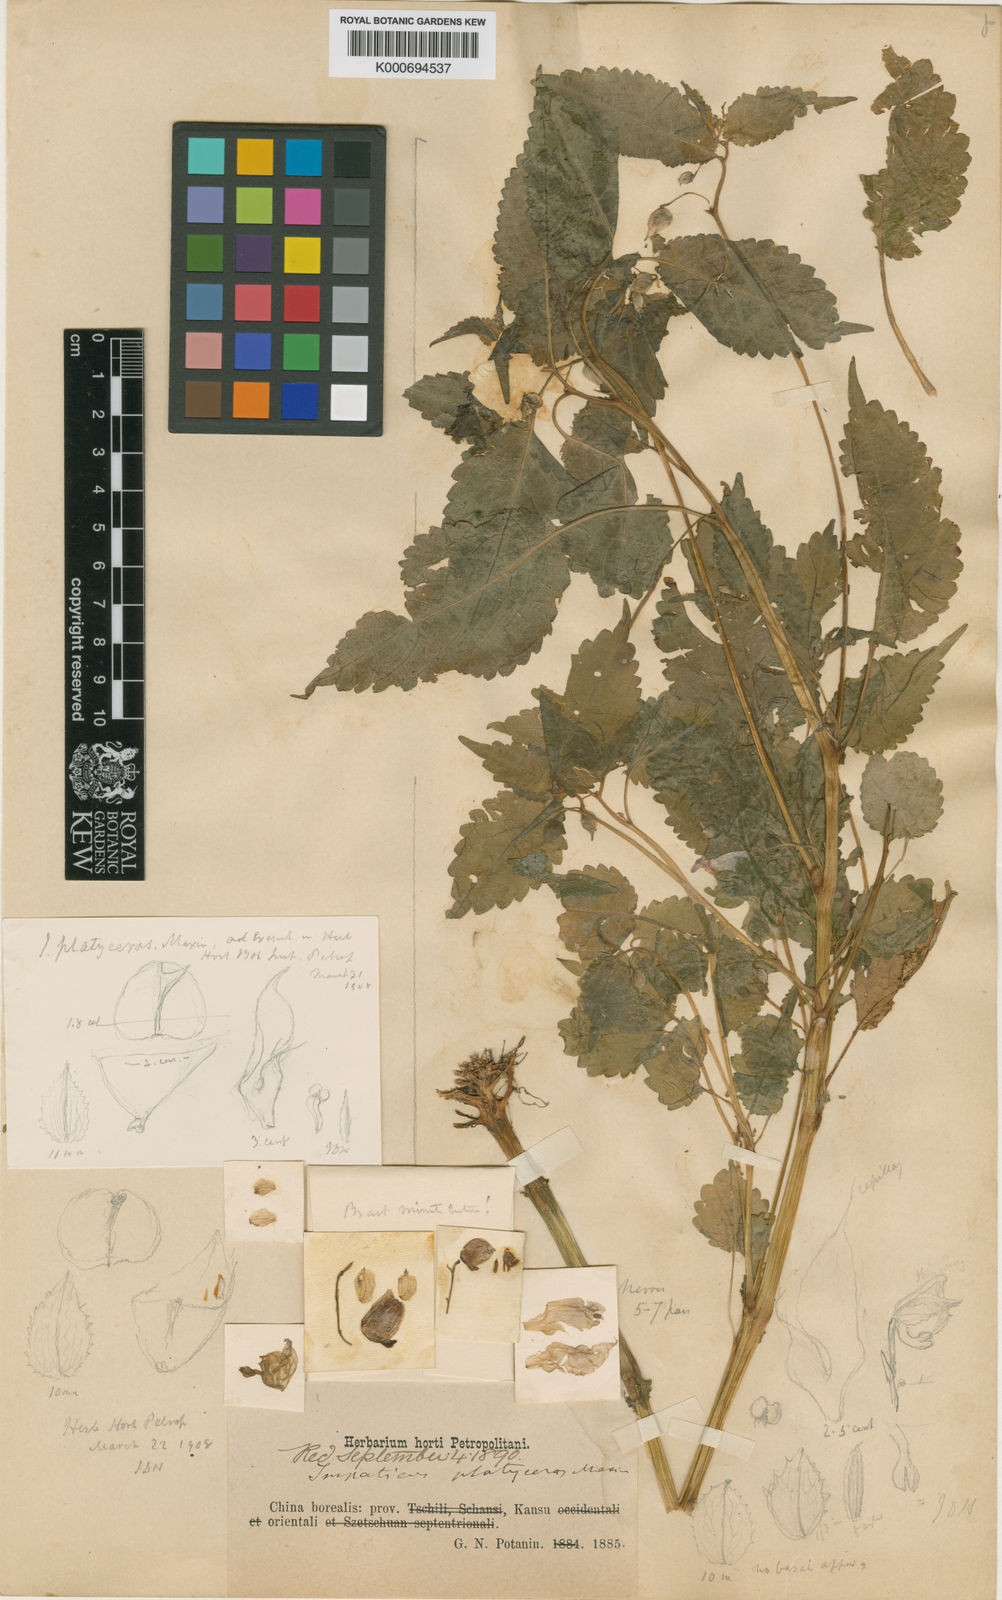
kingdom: Plantae
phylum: Tracheophyta
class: Magnoliopsida
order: Ericales
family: Balsaminaceae
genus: Impatiens
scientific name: Impatiens platyceras
